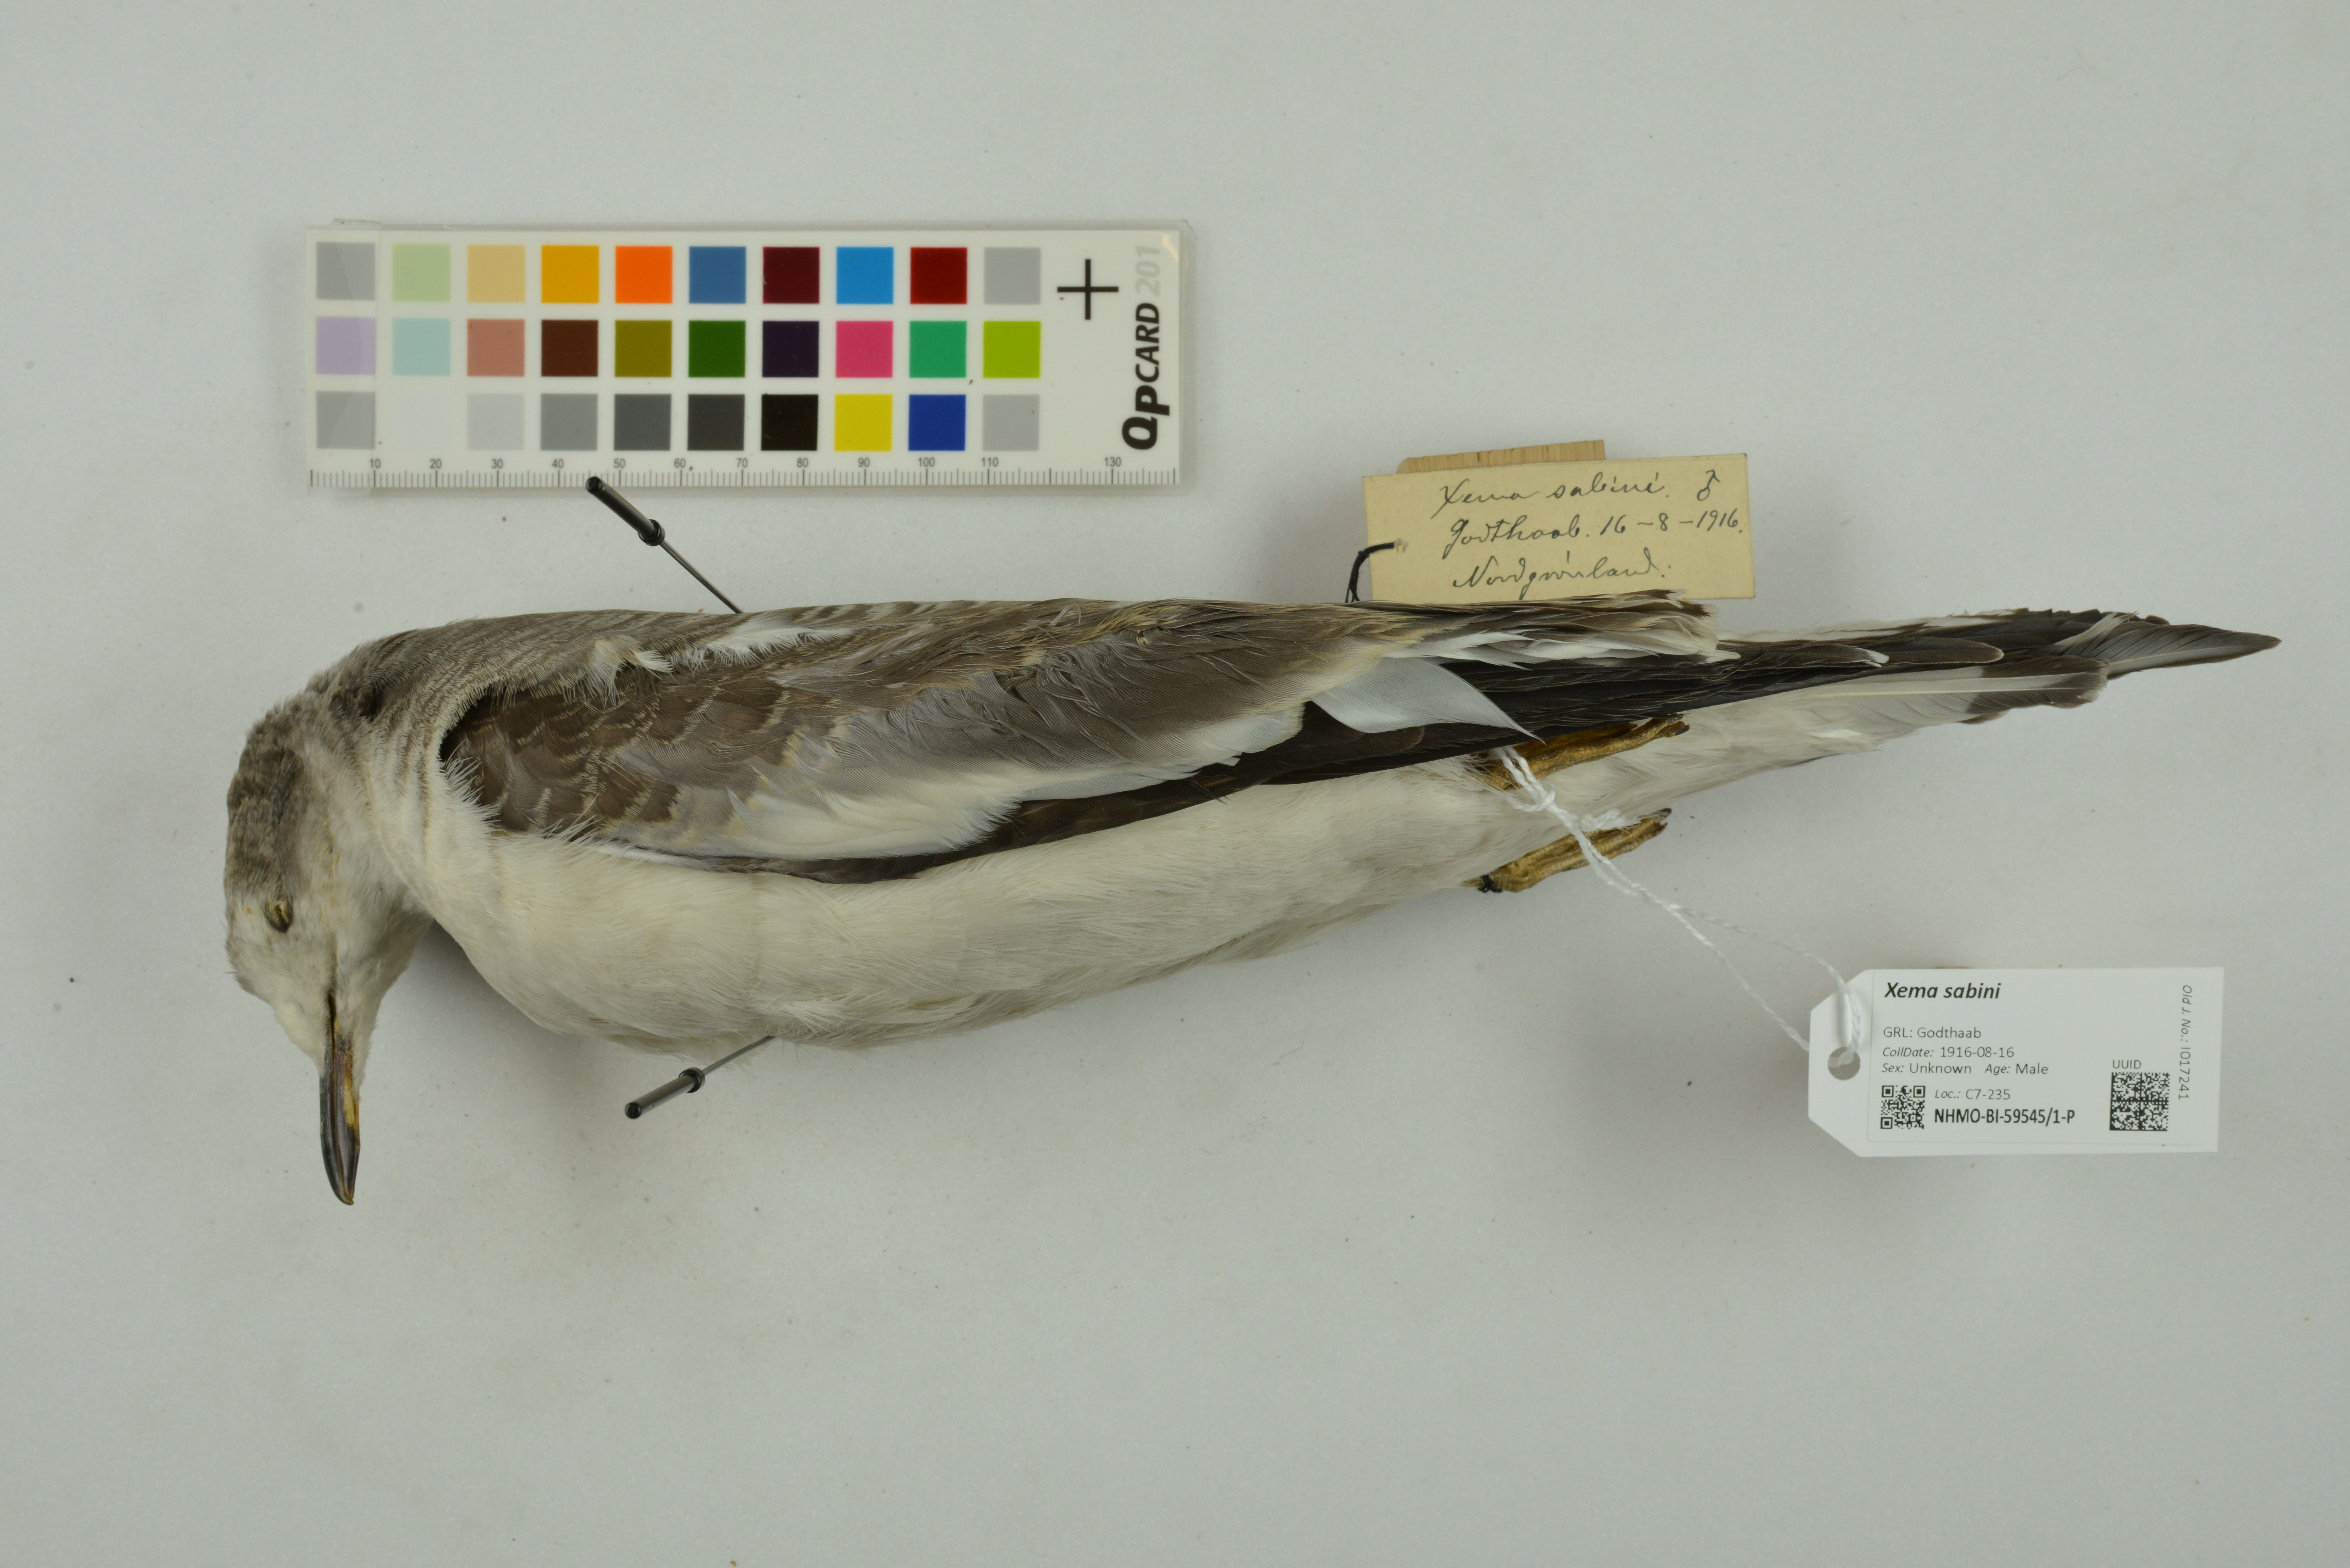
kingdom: Animalia
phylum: Chordata
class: Aves
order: Charadriiformes
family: Laridae
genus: Xema
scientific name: Xema sabini
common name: Sabine's gull
